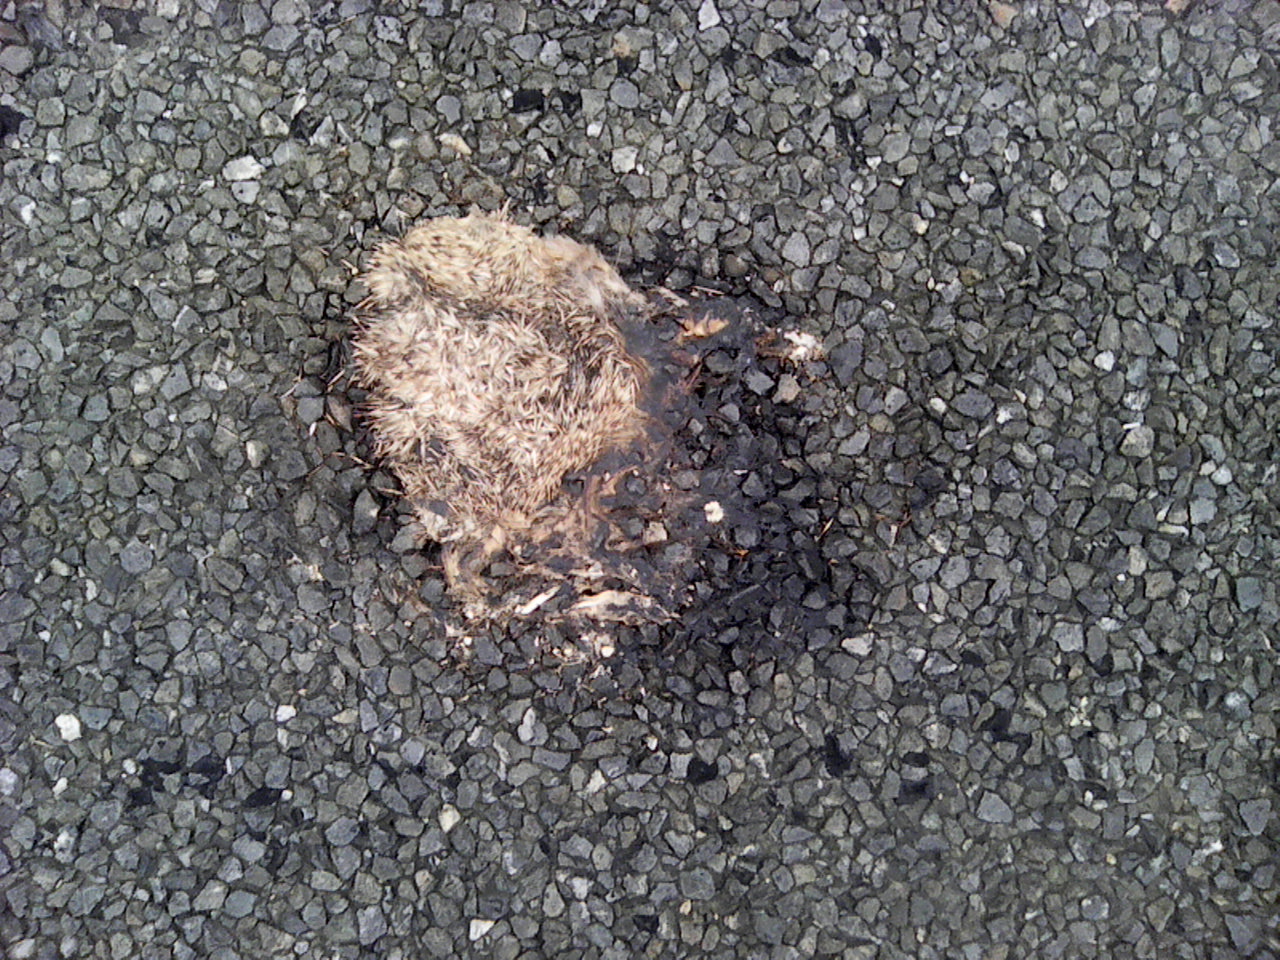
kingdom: Animalia
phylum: Chordata
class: Mammalia
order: Erinaceomorpha
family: Erinaceidae
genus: Erinaceus
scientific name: Erinaceus
